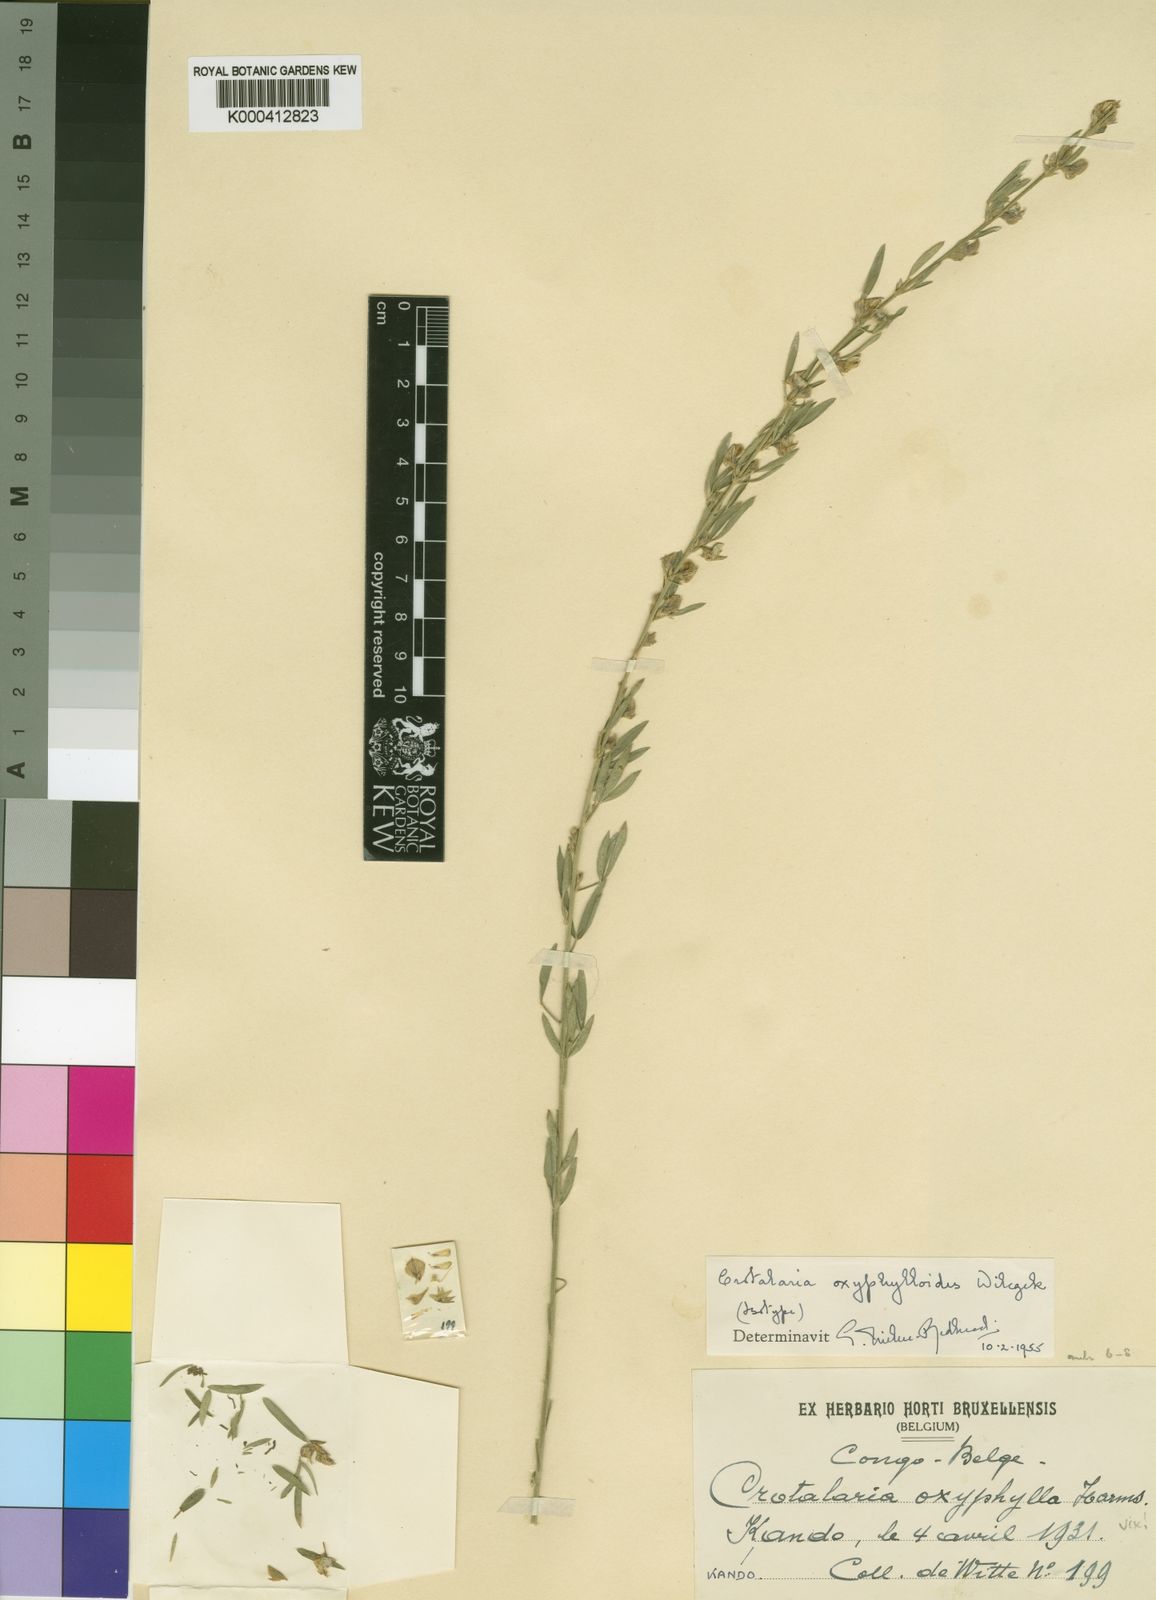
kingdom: Plantae
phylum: Tracheophyta
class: Magnoliopsida
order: Fabales
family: Fabaceae
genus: Crotalaria
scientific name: Crotalaria oxyphylloides
